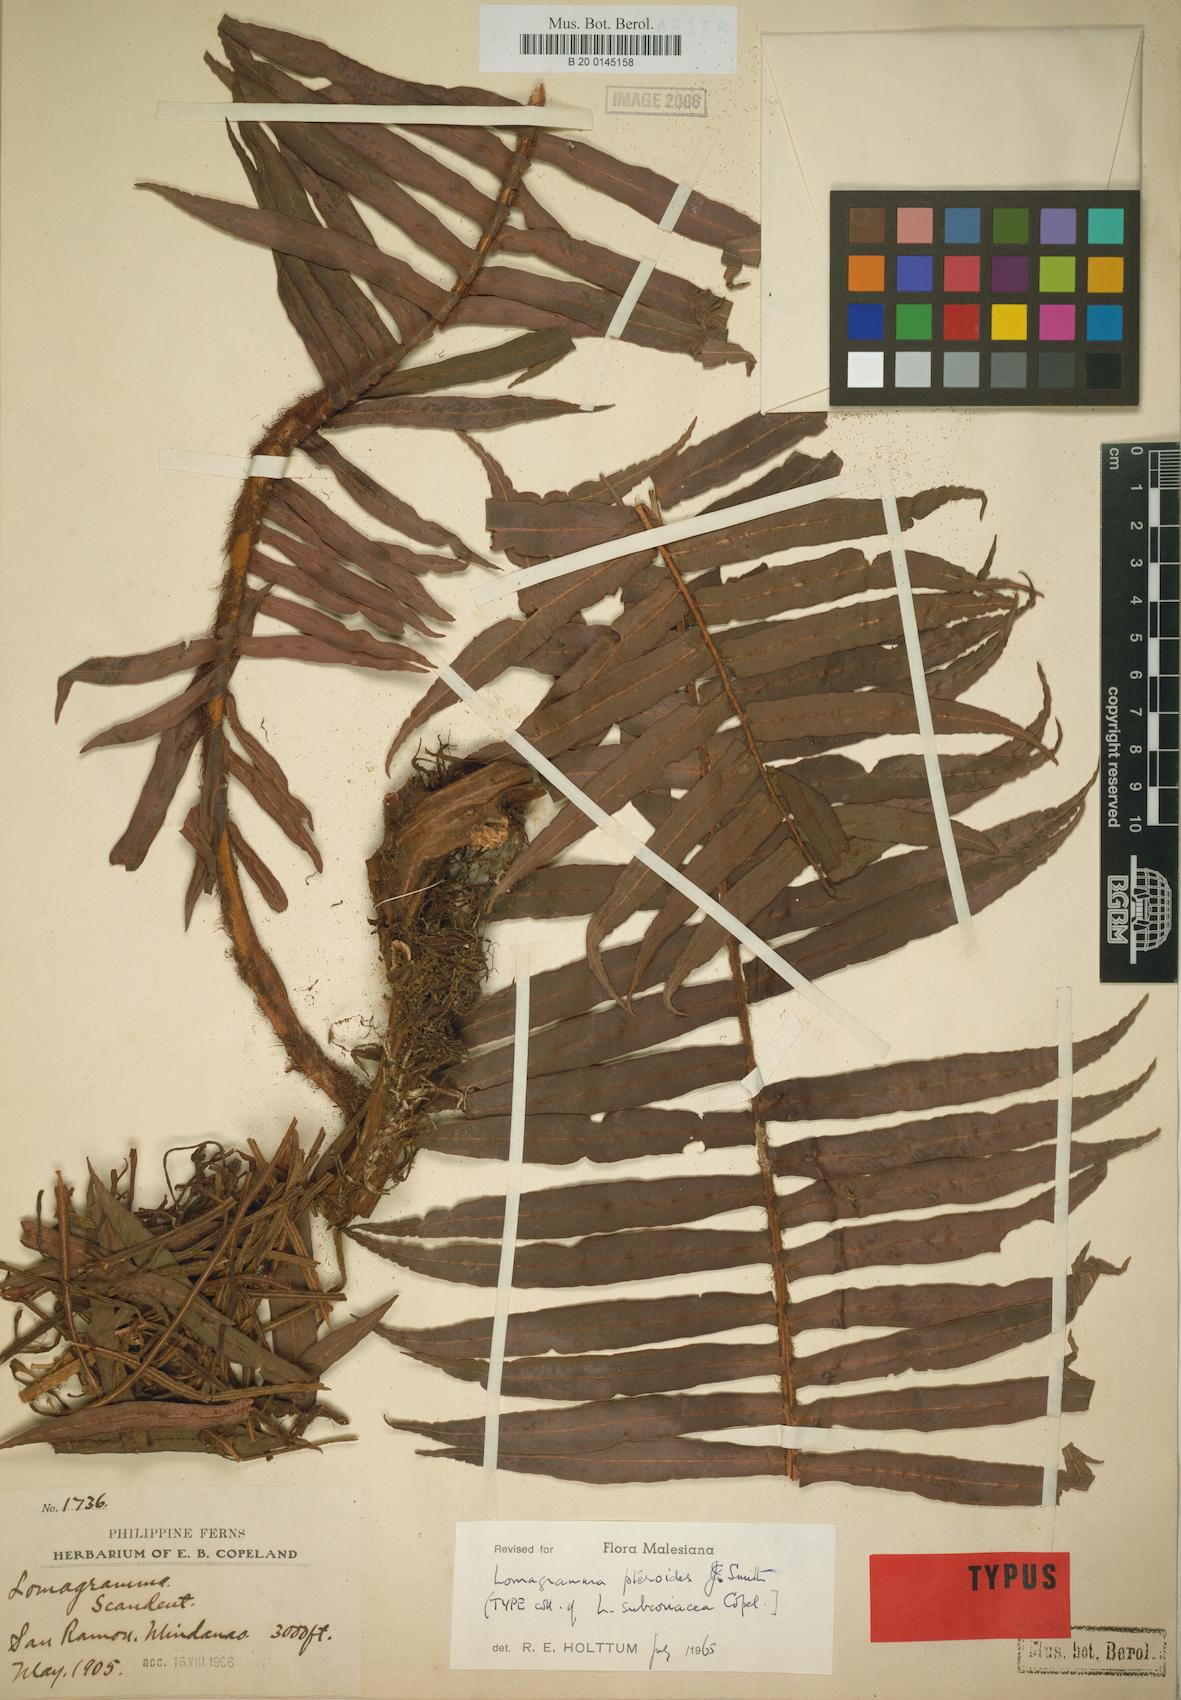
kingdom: Plantae
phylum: Tracheophyta
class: Polypodiopsida
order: Polypodiales
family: Dryopteridaceae
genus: Lomagramma
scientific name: Lomagramma pteroides
